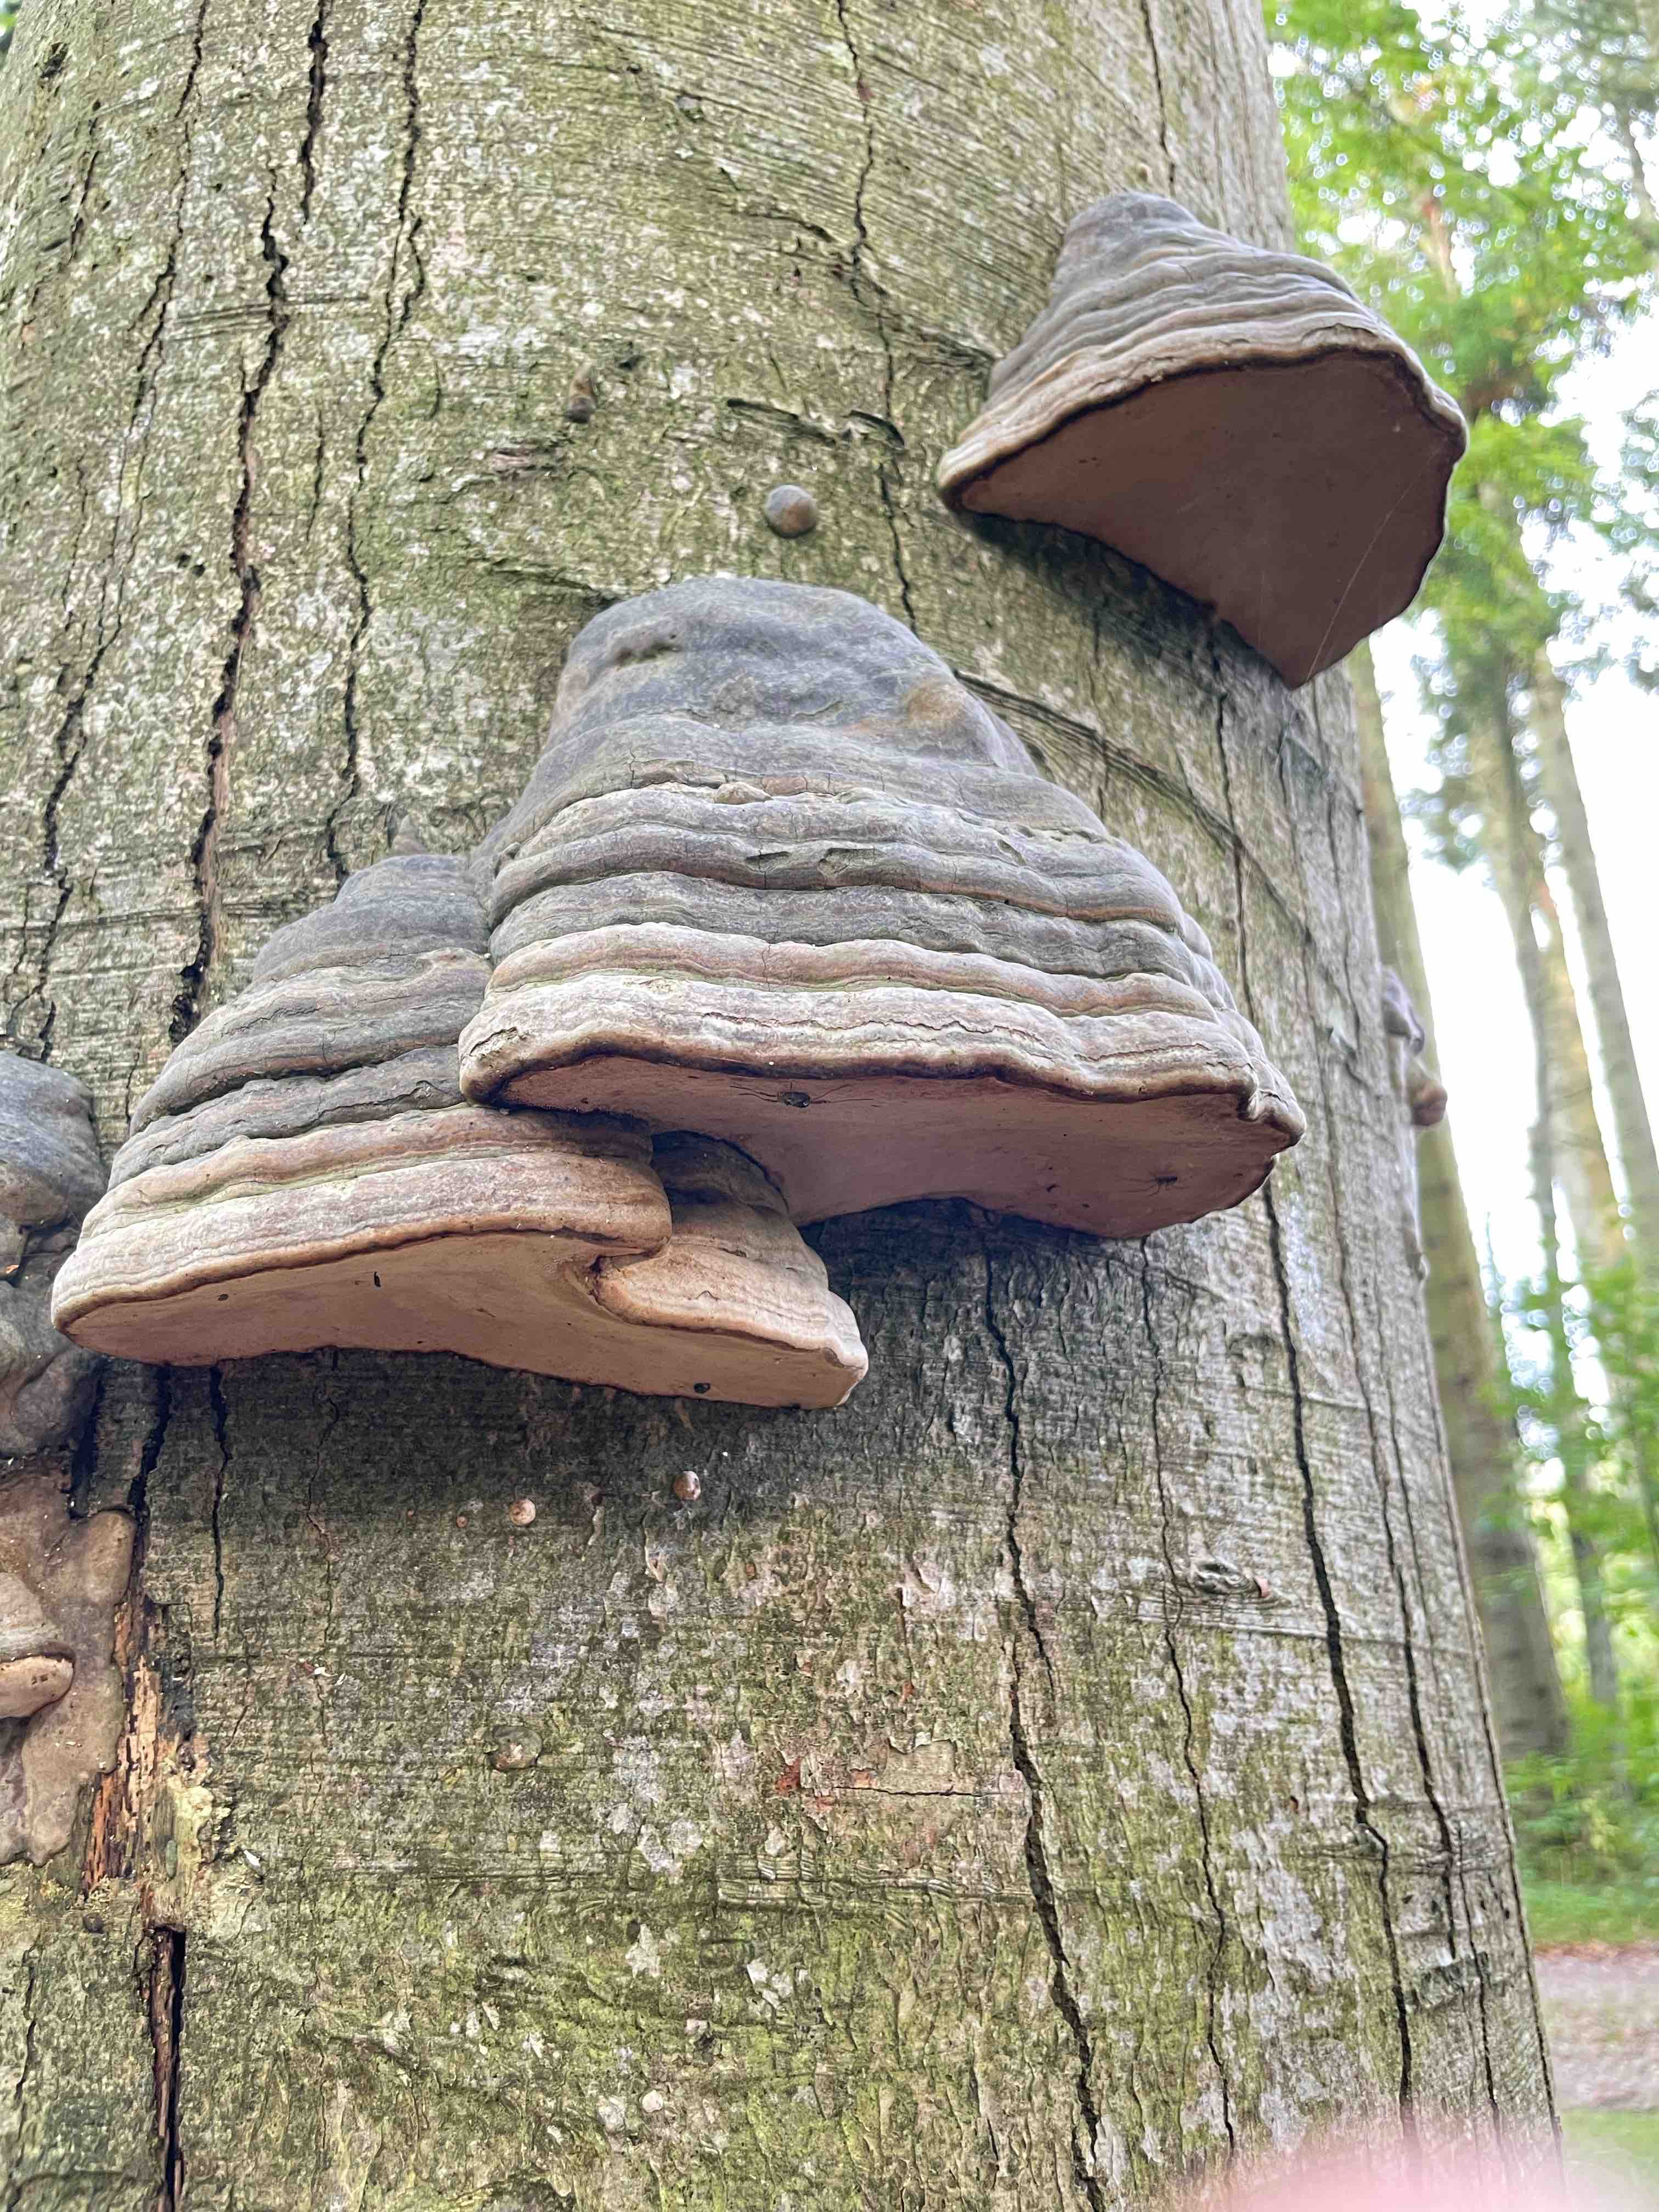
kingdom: Fungi
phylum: Basidiomycota
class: Agaricomycetes
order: Polyporales
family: Polyporaceae
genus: Fomes
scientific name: Fomes fomentarius
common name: tøndersvamp
